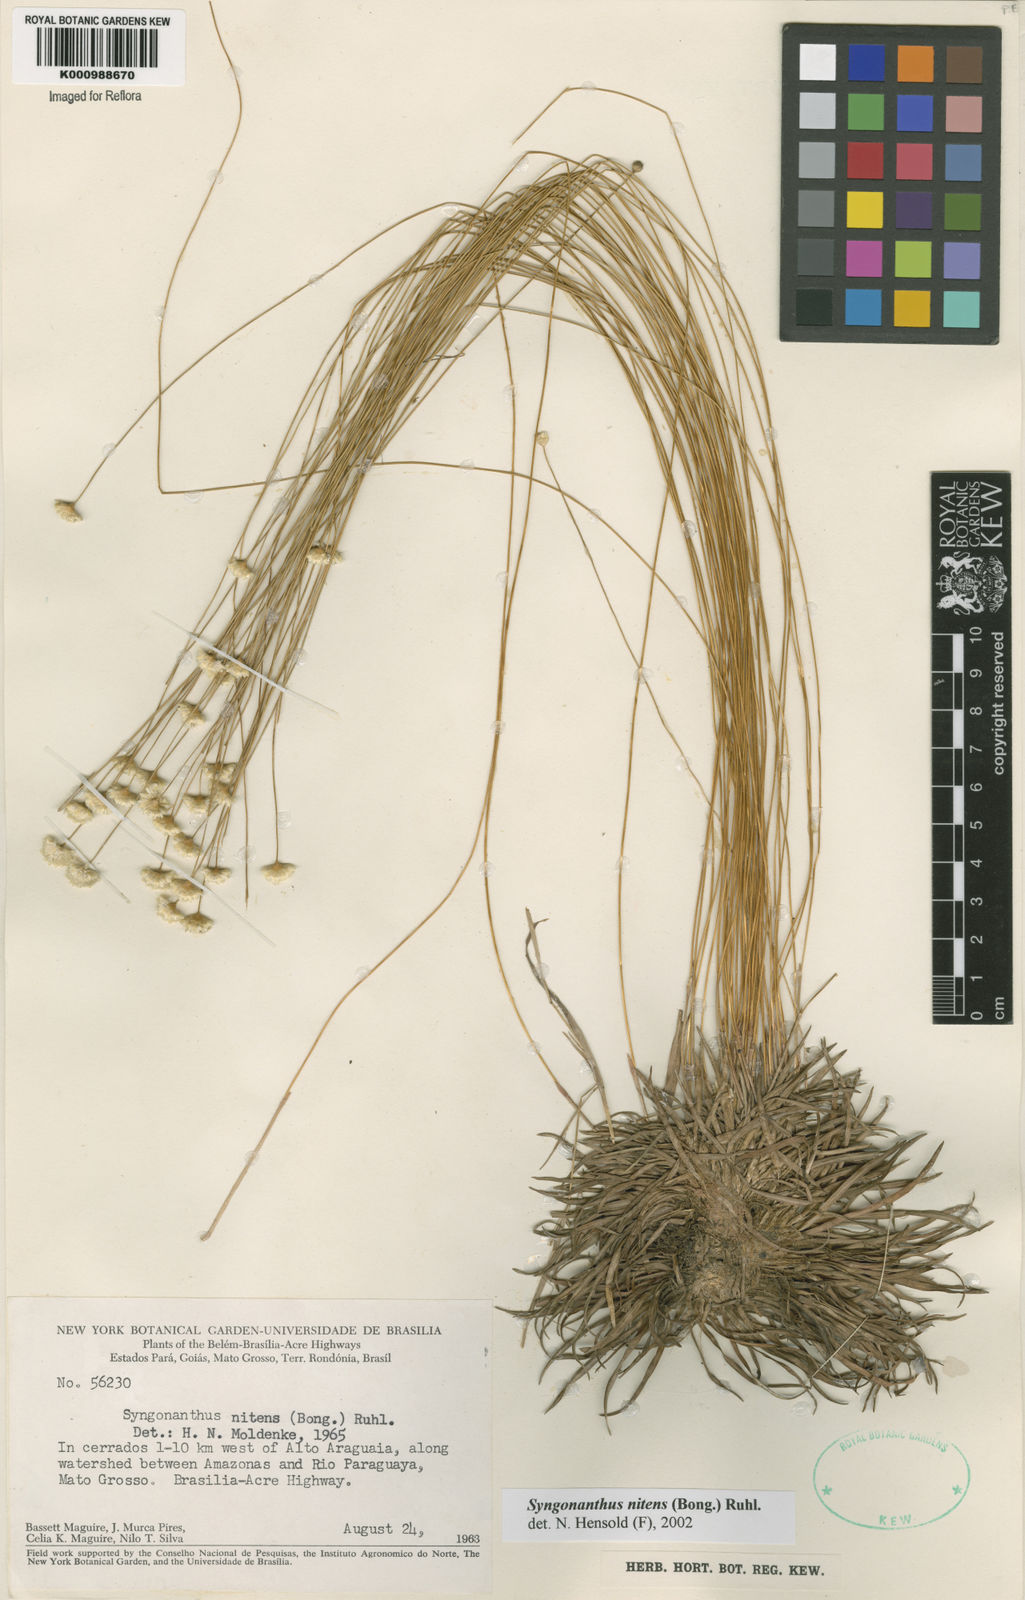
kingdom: Plantae
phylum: Tracheophyta
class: Liliopsida
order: Poales
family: Eriocaulaceae
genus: Syngonanthus
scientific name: Syngonanthus nitens
